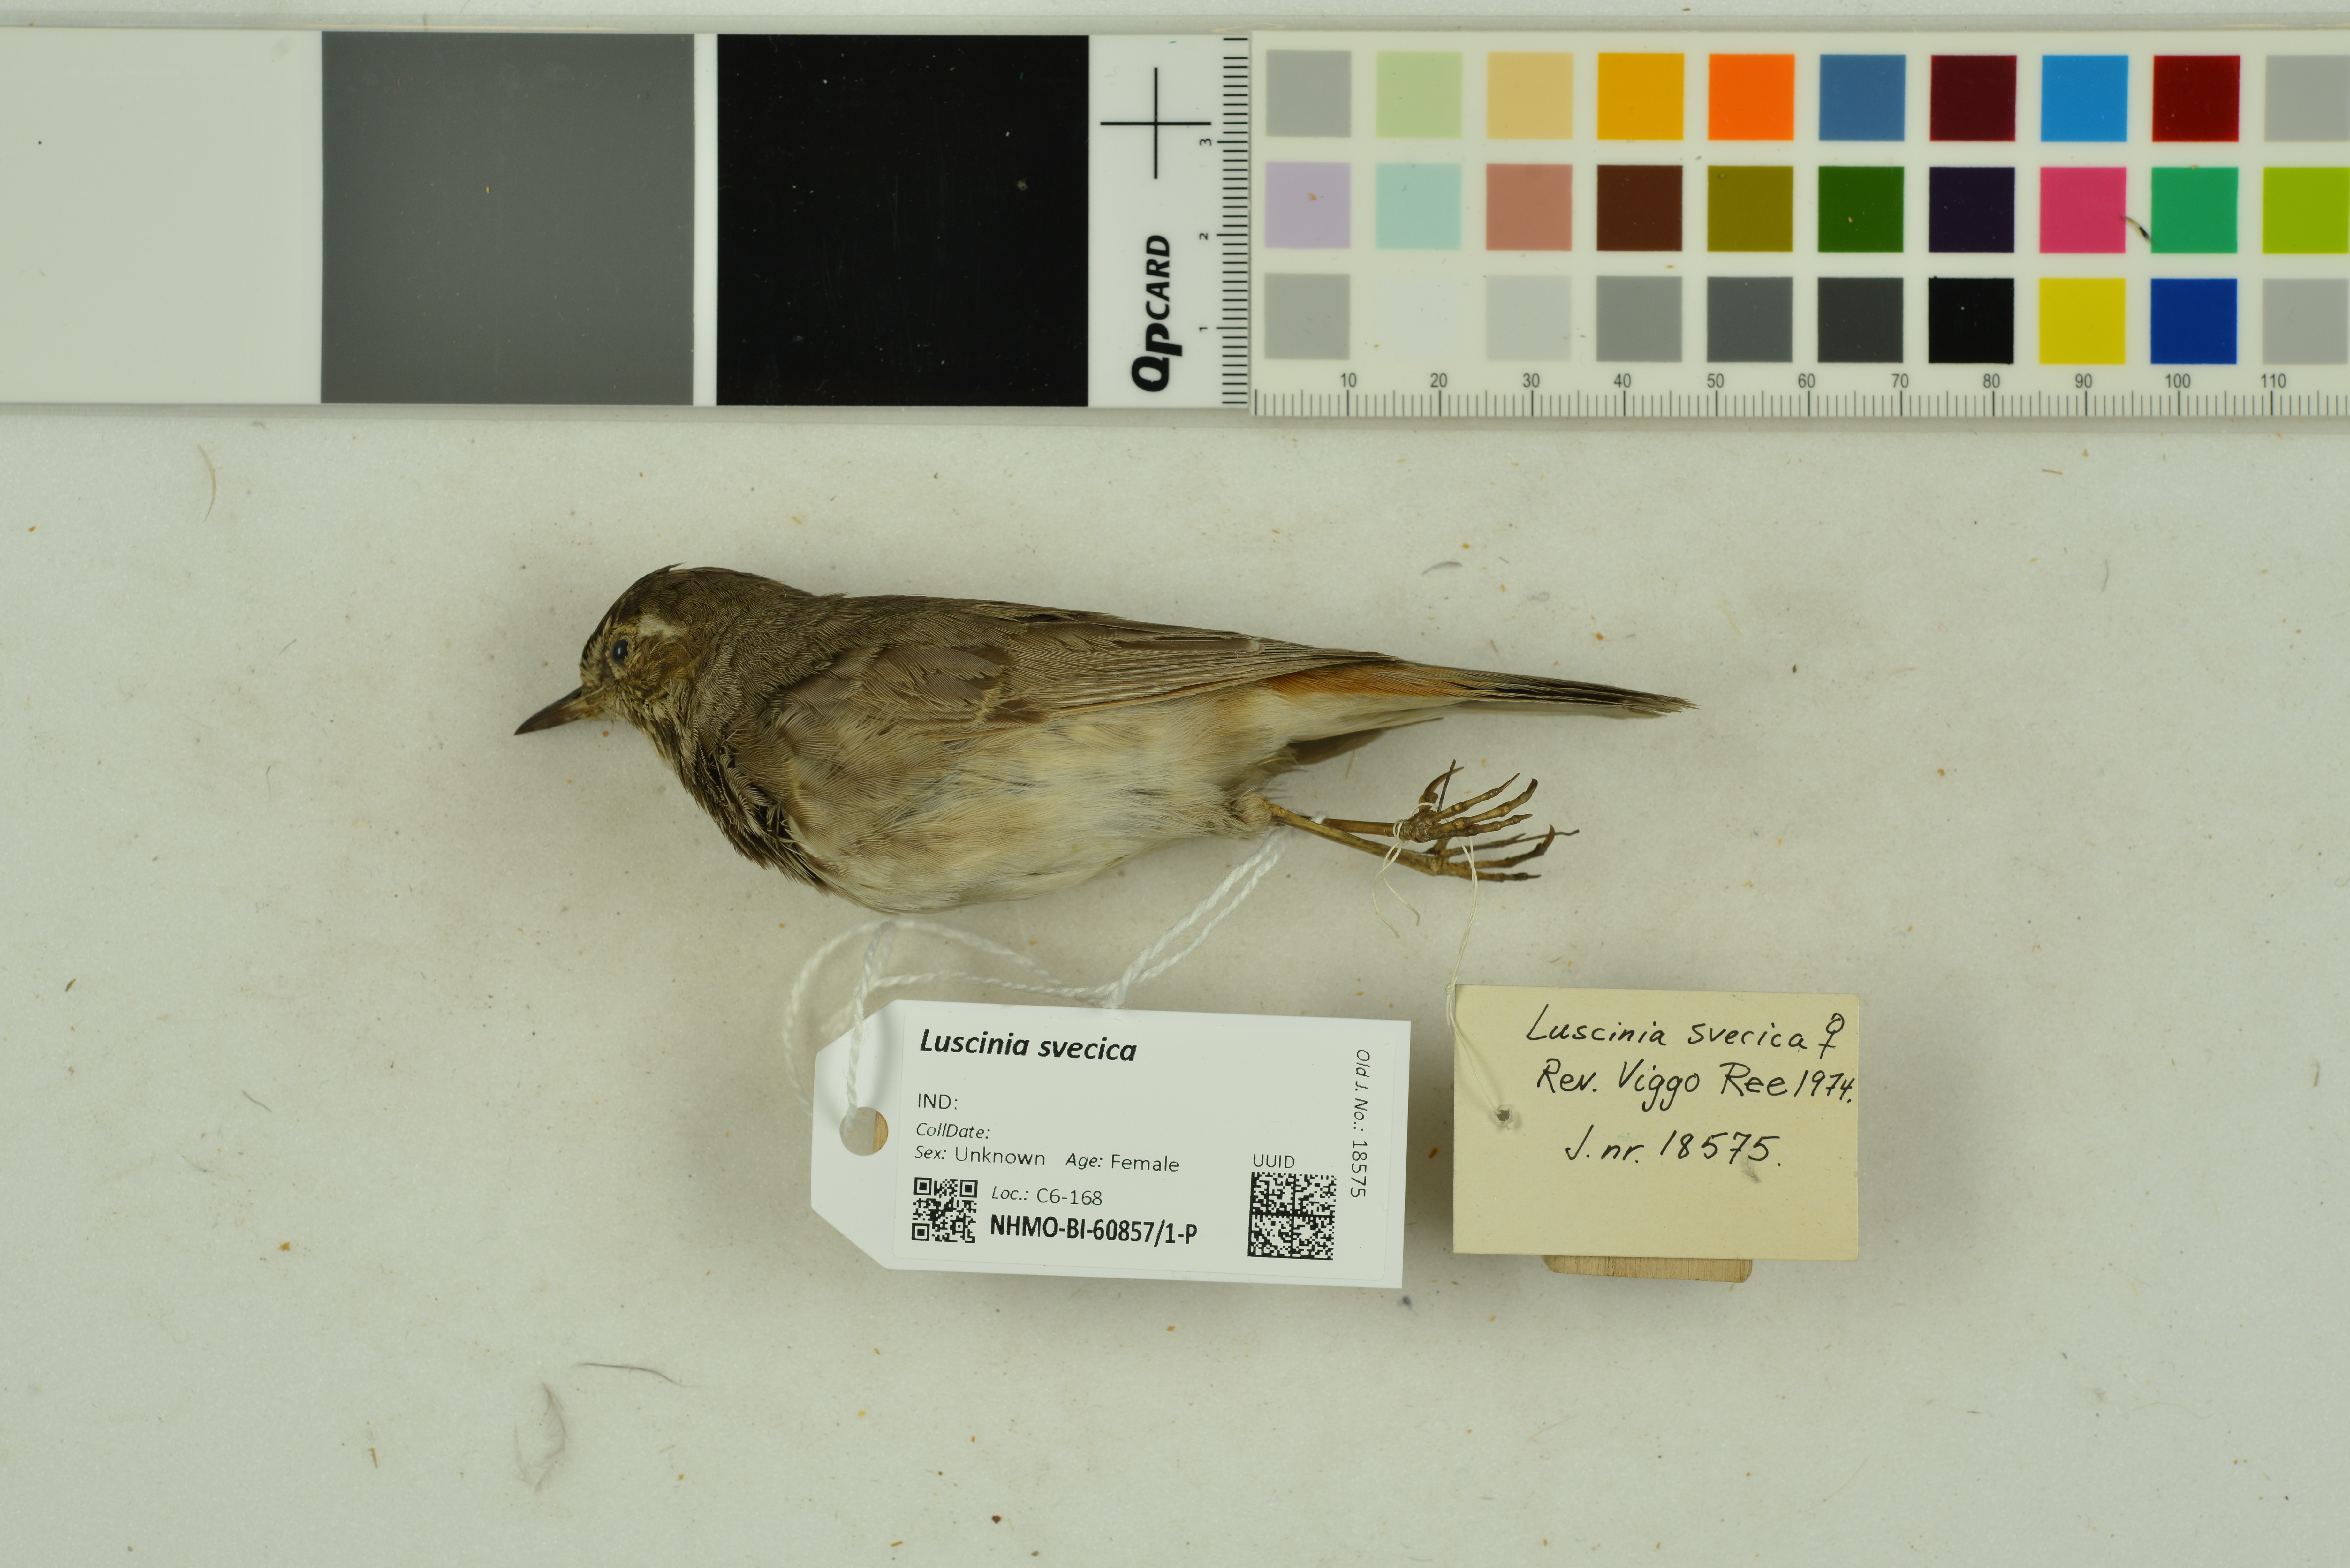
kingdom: Animalia
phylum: Chordata
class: Aves
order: Passeriformes
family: Muscicapidae
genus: Luscinia
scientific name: Luscinia svecica
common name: Bluethroat
